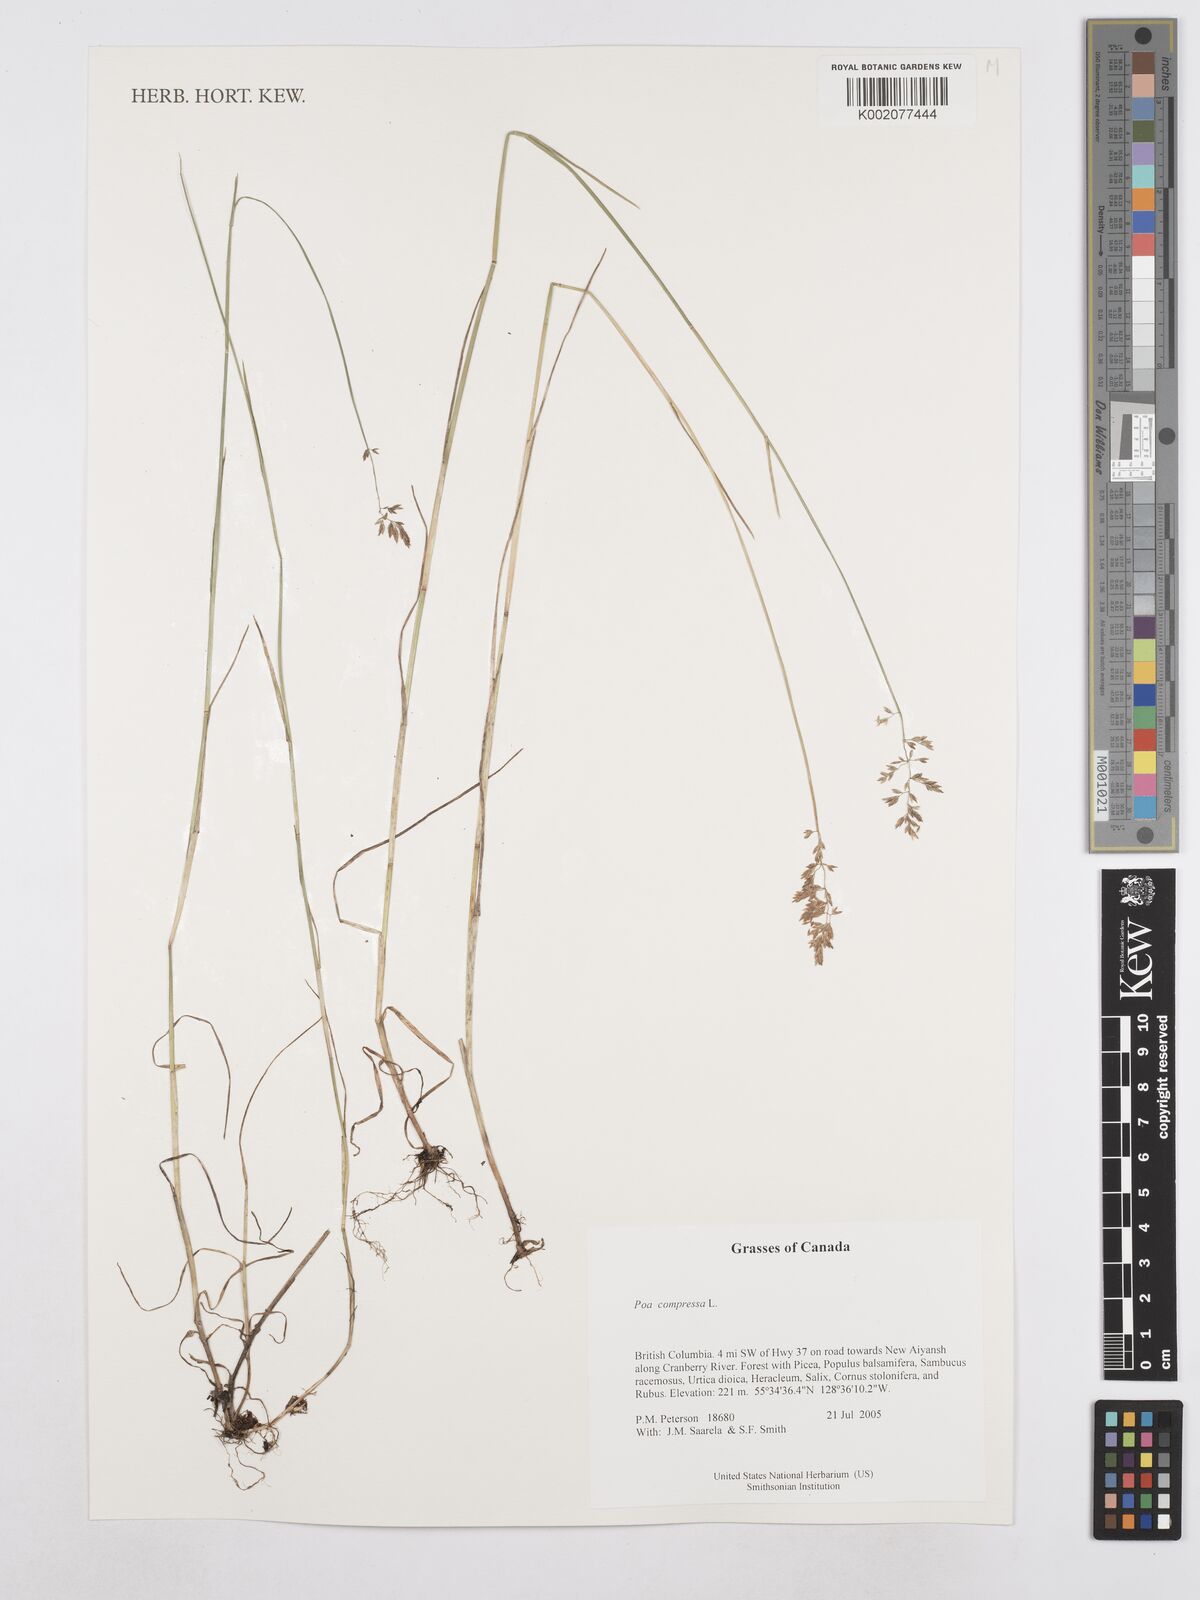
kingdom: Plantae
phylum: Tracheophyta
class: Liliopsida
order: Poales
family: Poaceae
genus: Poa
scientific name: Poa compressa
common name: Canada bluegrass
